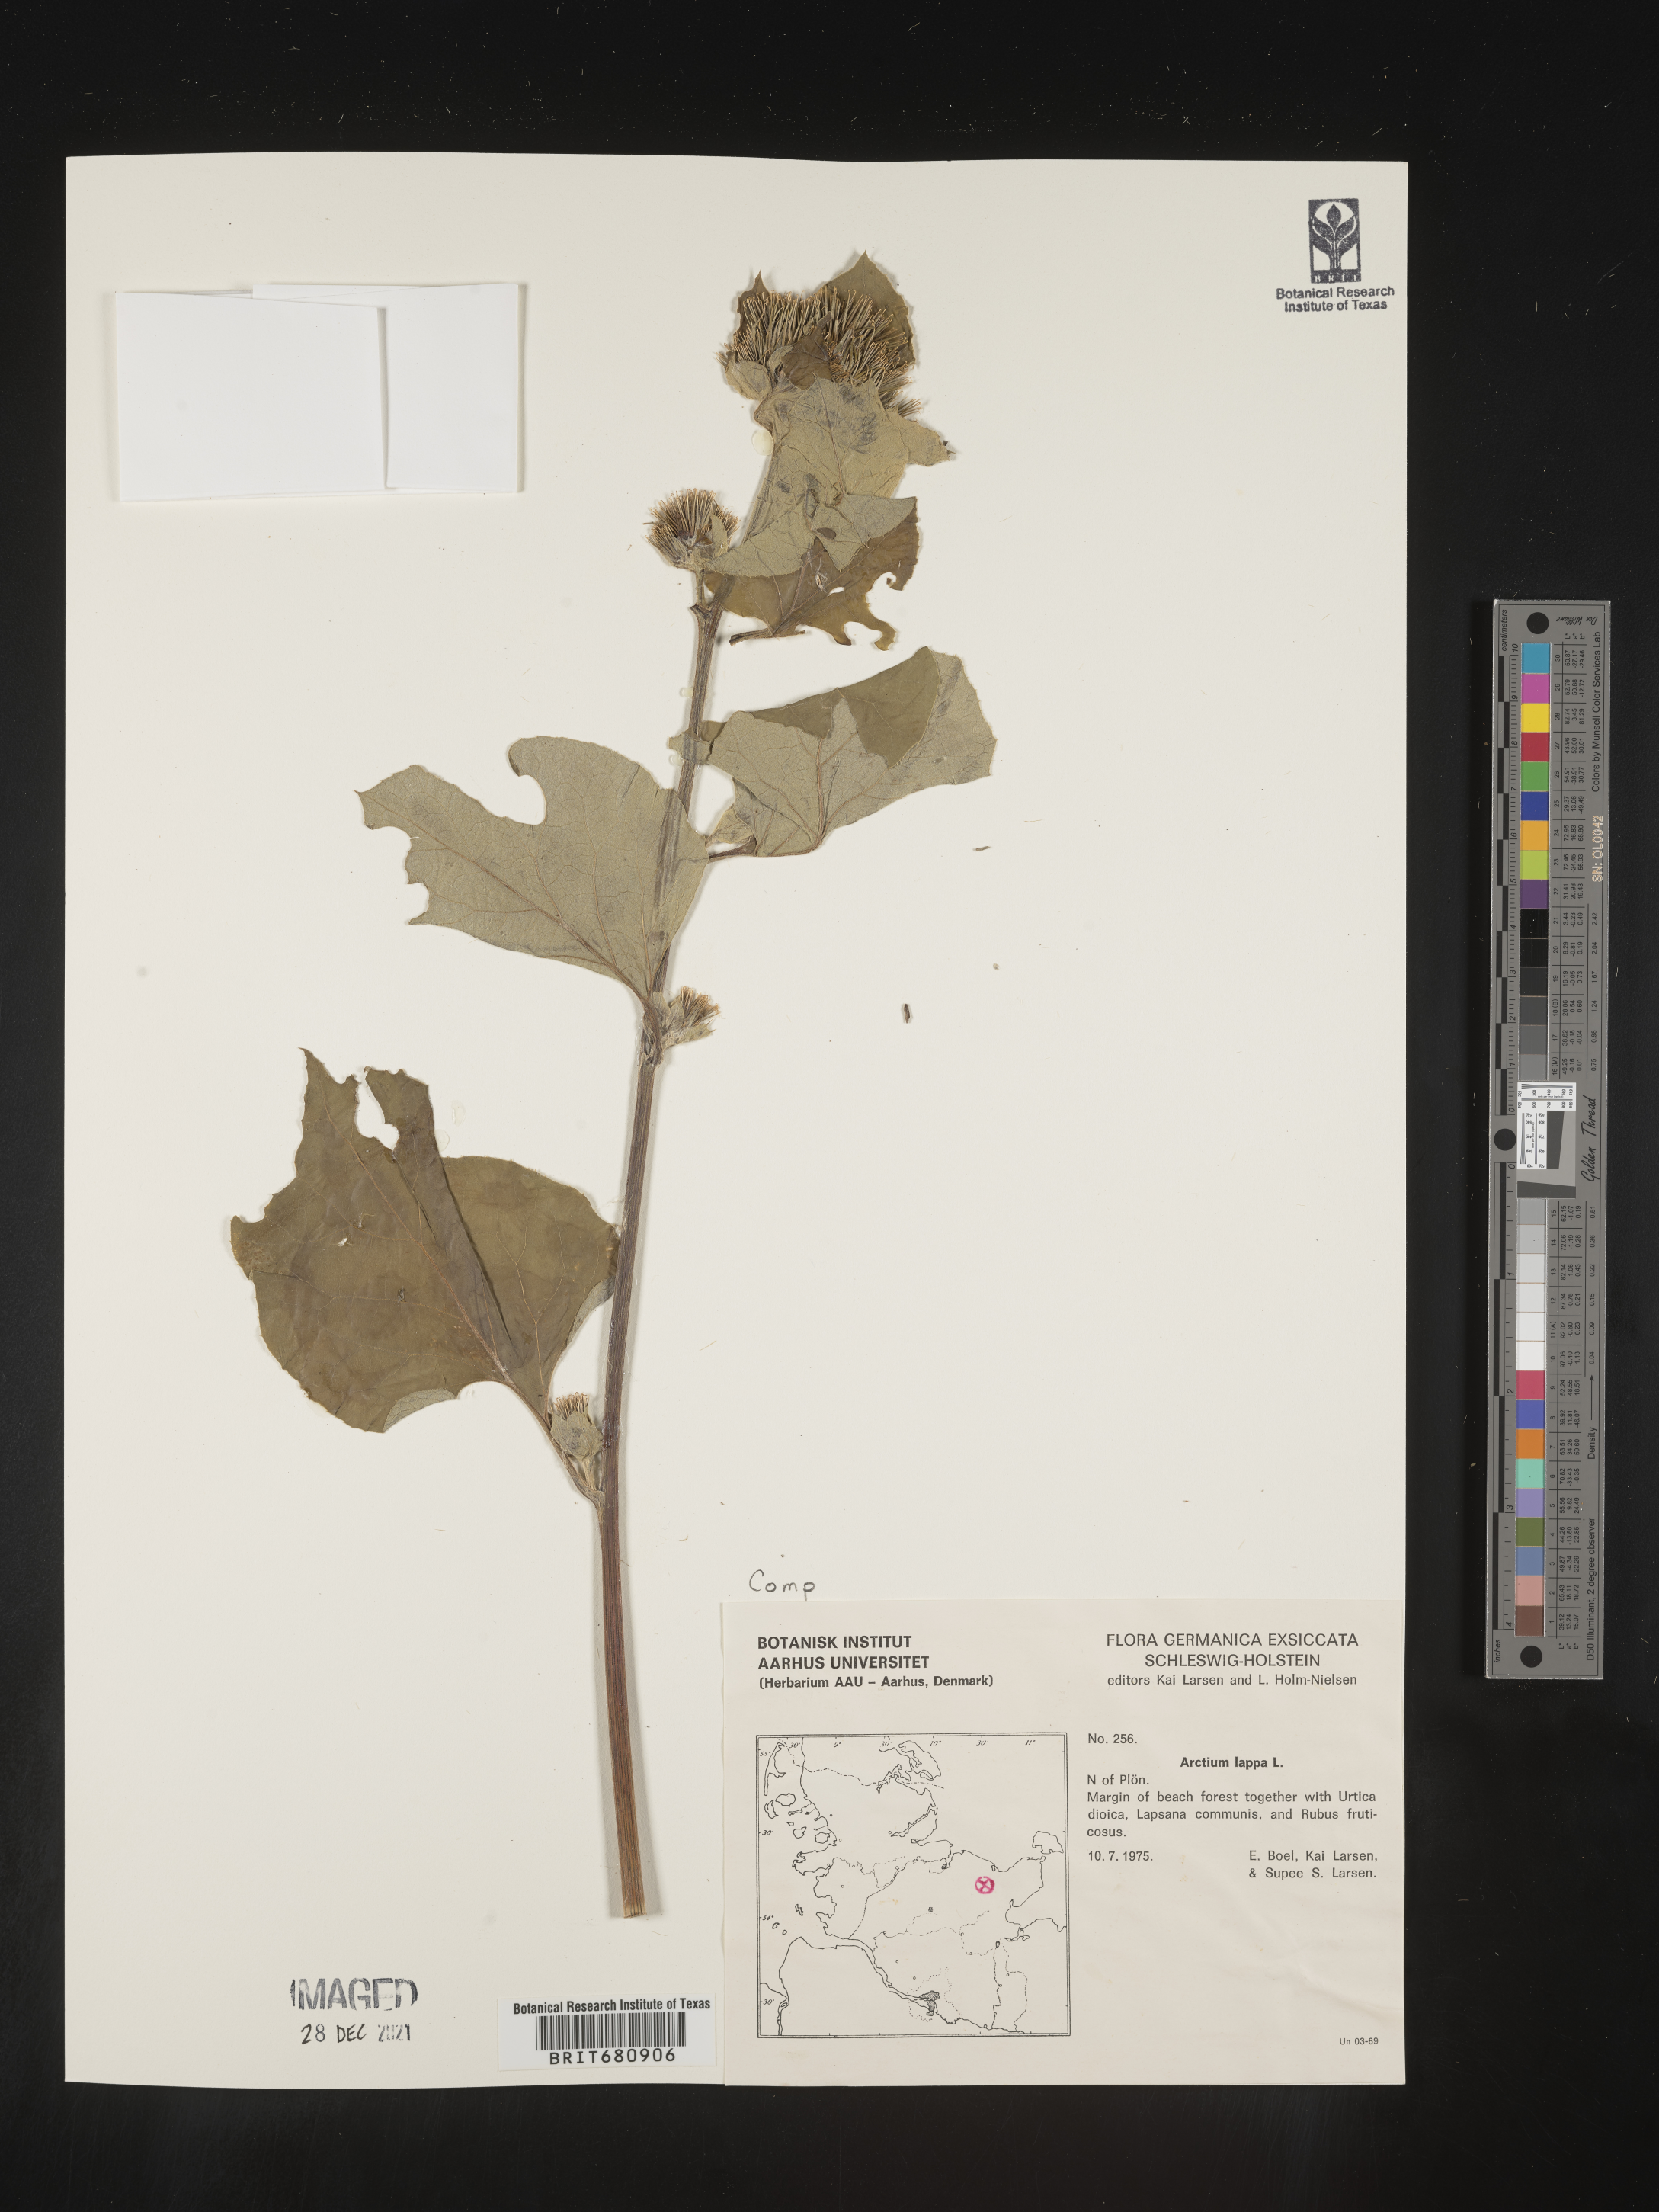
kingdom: Plantae
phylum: Tracheophyta
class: Magnoliopsida
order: Asterales
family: Asteraceae
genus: Arctium
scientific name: Arctium lappa
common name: Greater burdock
